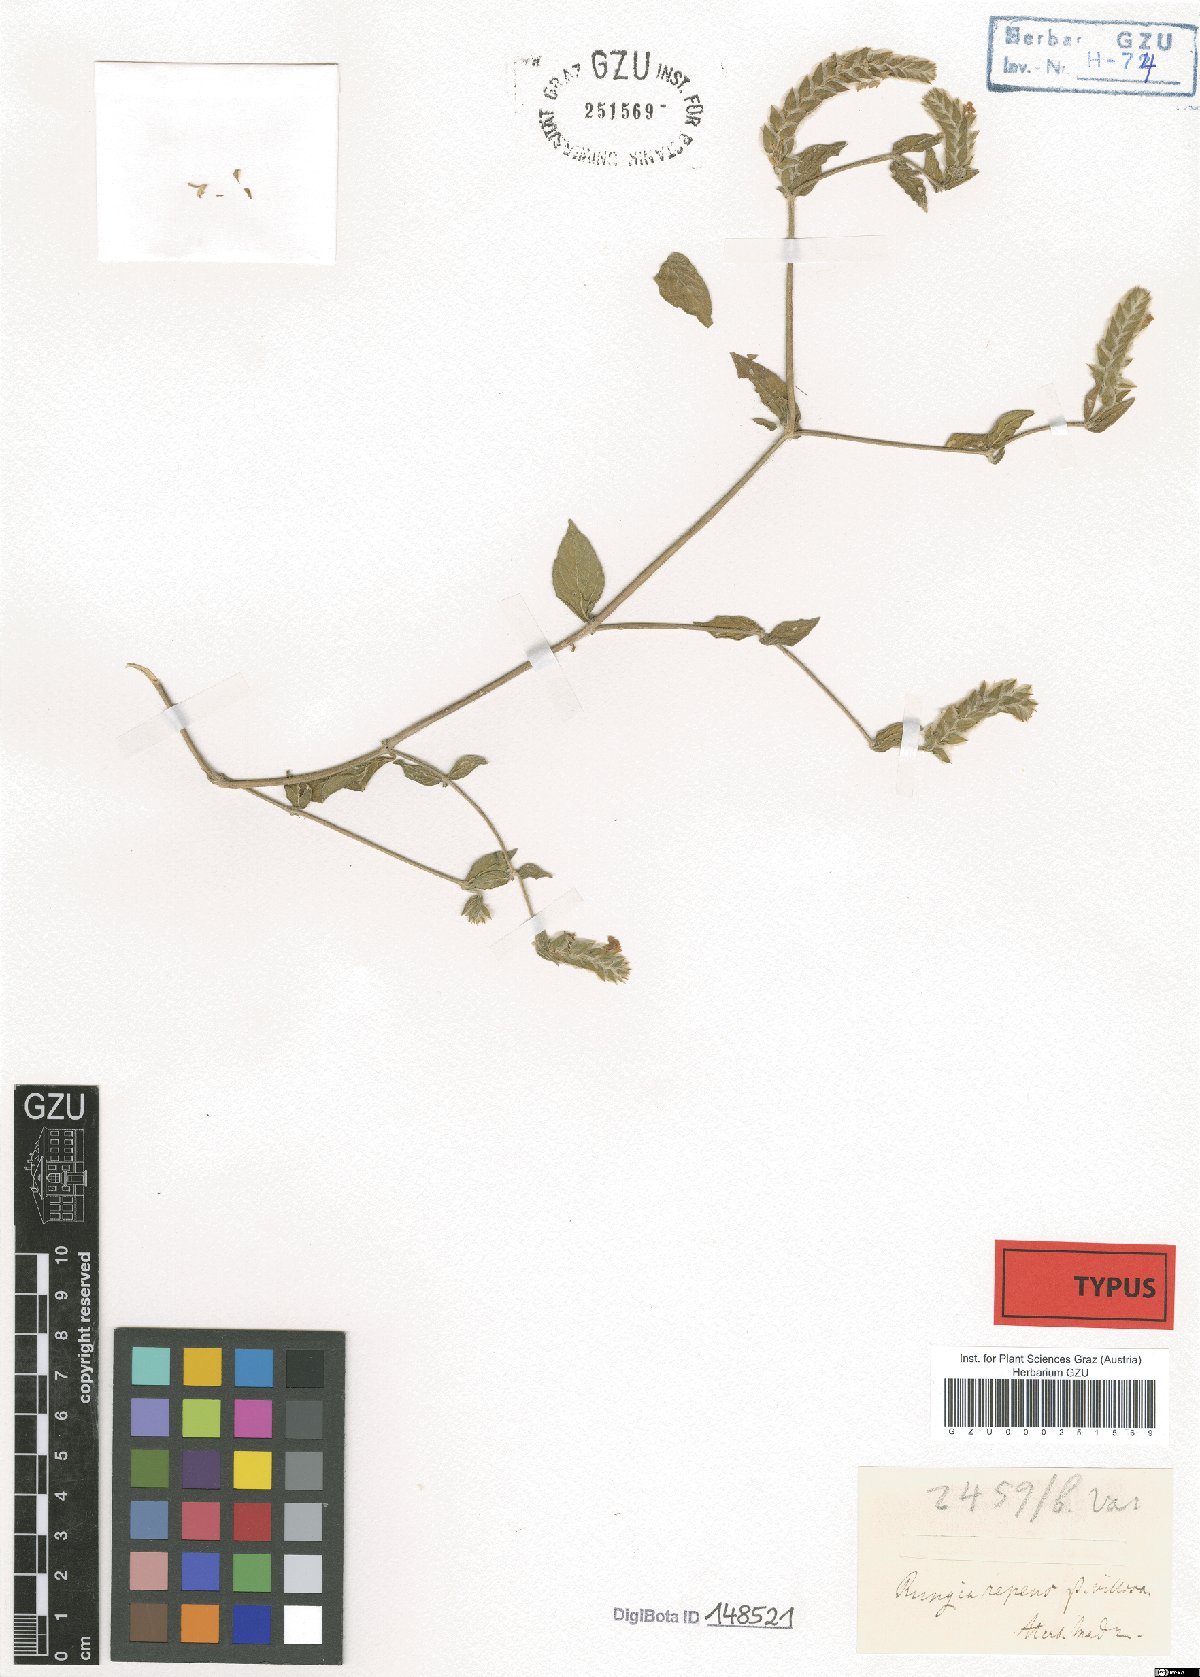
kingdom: Plantae
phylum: Tracheophyta
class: Magnoliopsida
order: Lamiales
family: Acanthaceae
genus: Rungia
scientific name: Rungia repens
